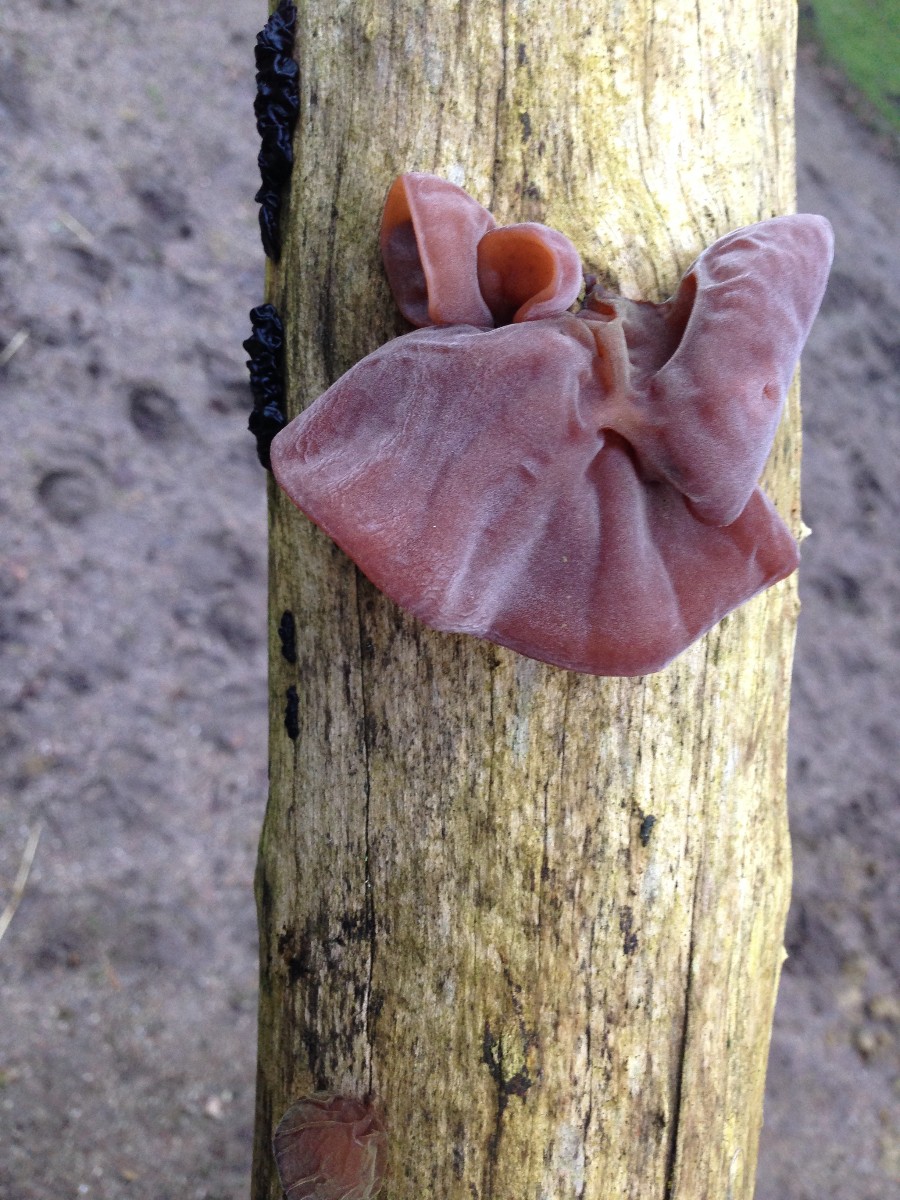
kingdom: Fungi
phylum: Basidiomycota
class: Agaricomycetes
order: Auriculariales
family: Auriculariaceae
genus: Auricularia
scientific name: Auricularia auricula-judae
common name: almindelig judasøre
